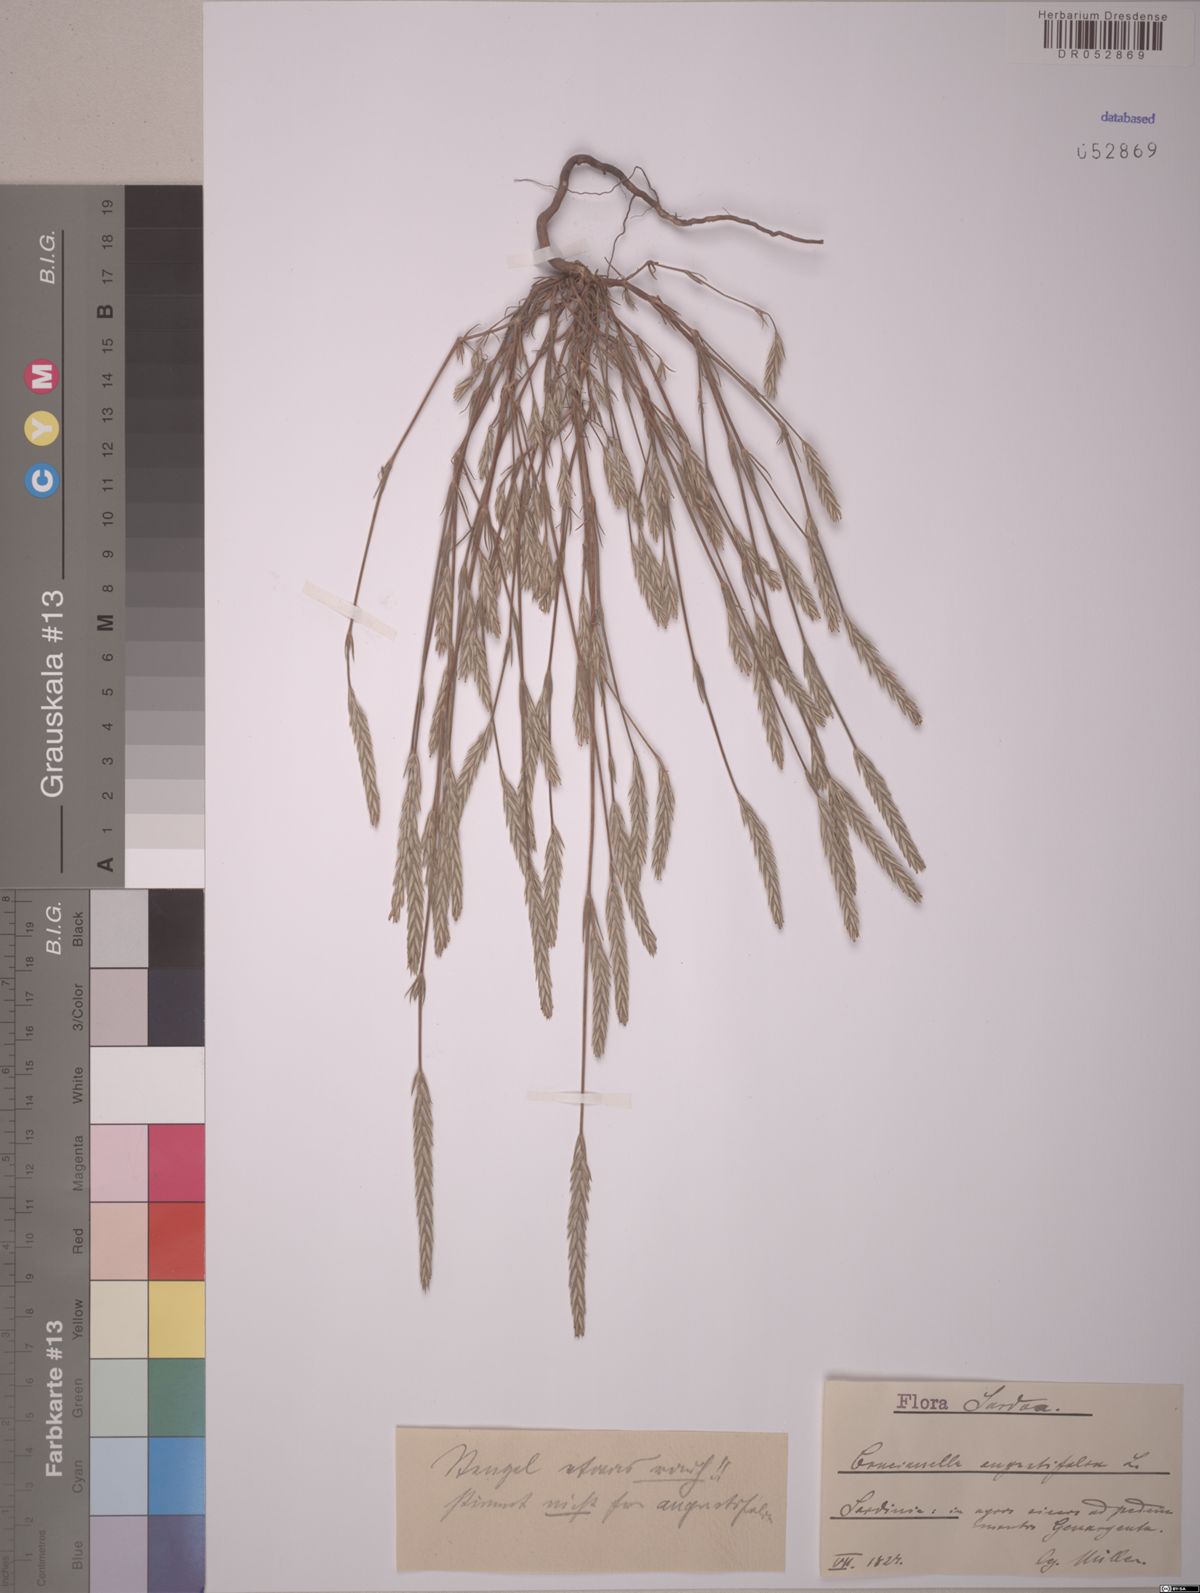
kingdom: Plantae
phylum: Tracheophyta
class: Magnoliopsida
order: Gentianales
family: Rubiaceae
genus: Crucianella
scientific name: Crucianella angustifolia
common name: Narrowleaf crucianella
